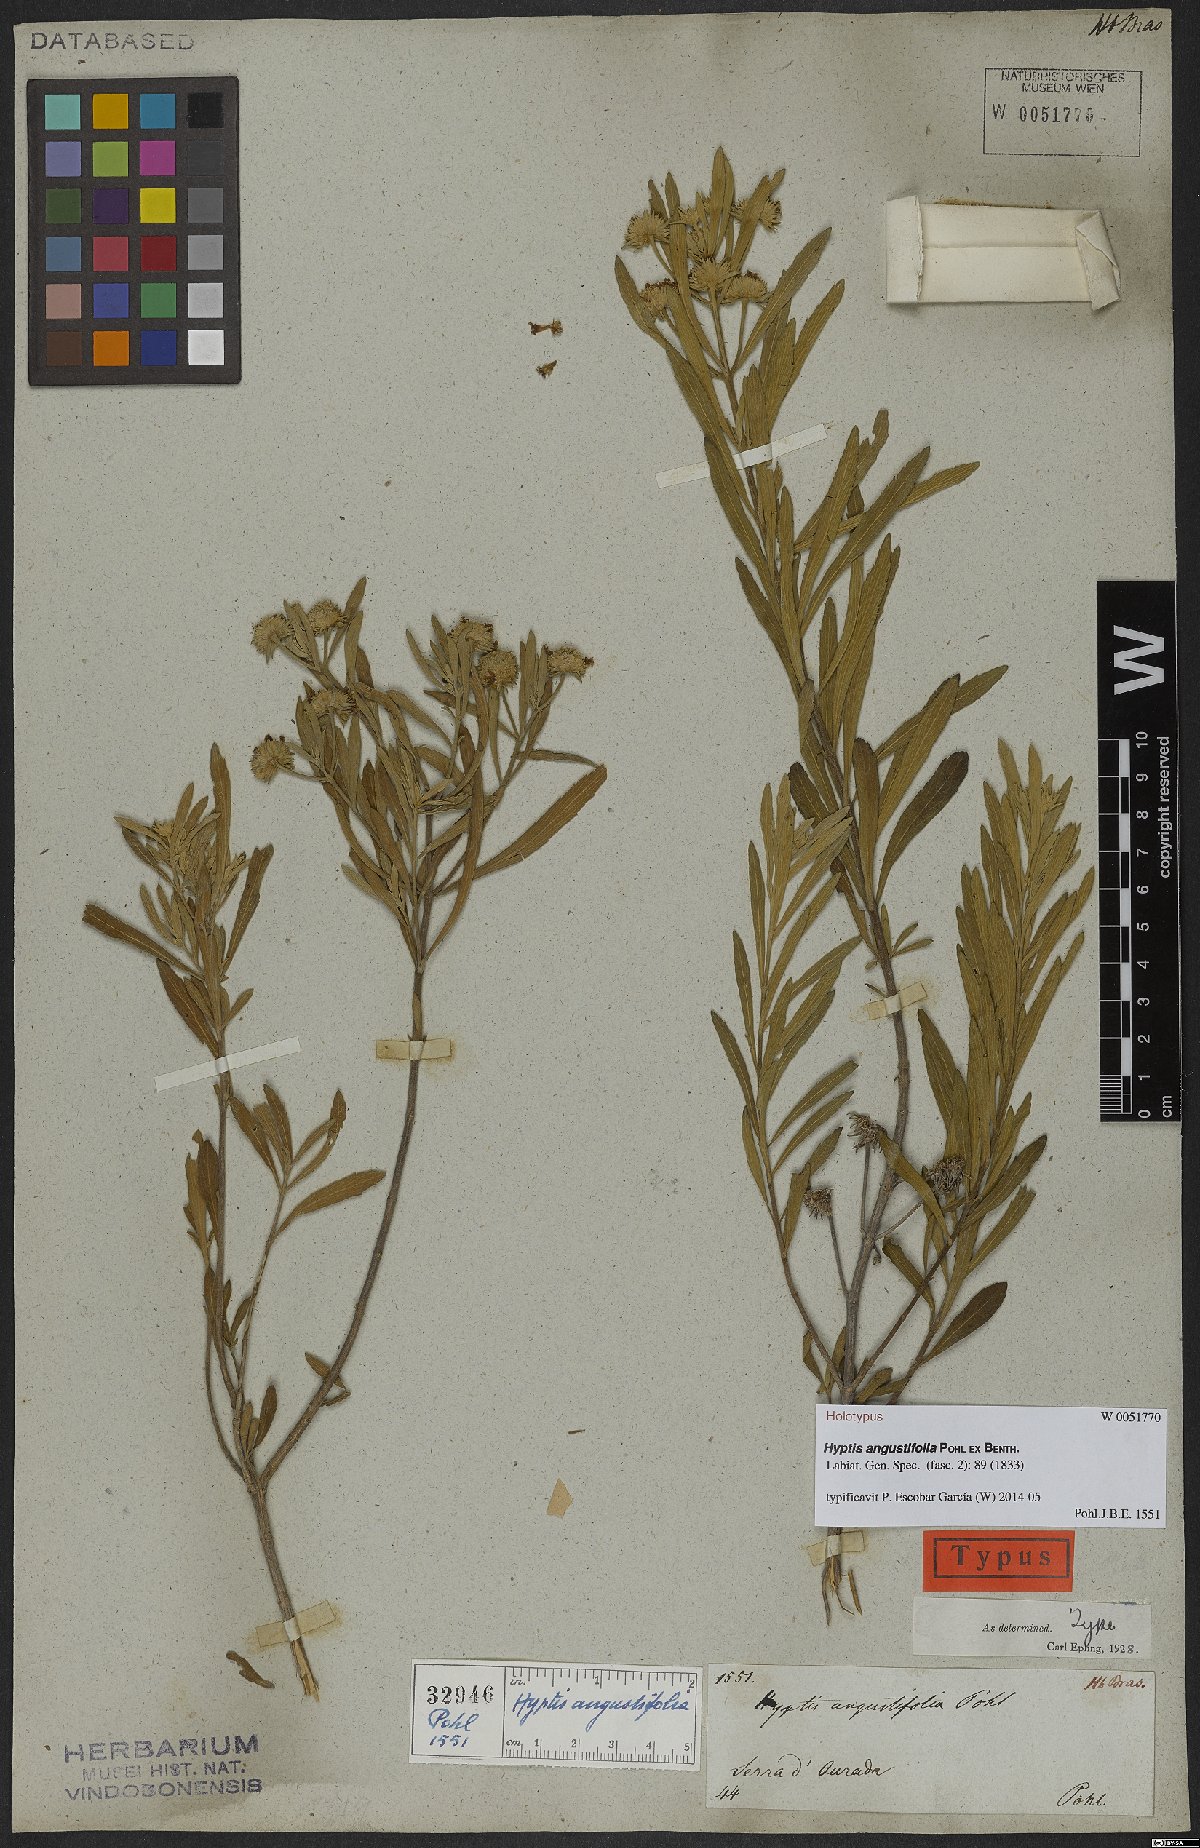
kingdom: Plantae
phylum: Tracheophyta
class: Magnoliopsida
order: Lamiales
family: Lamiaceae
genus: Hyptis
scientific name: Hyptis angustifolia
